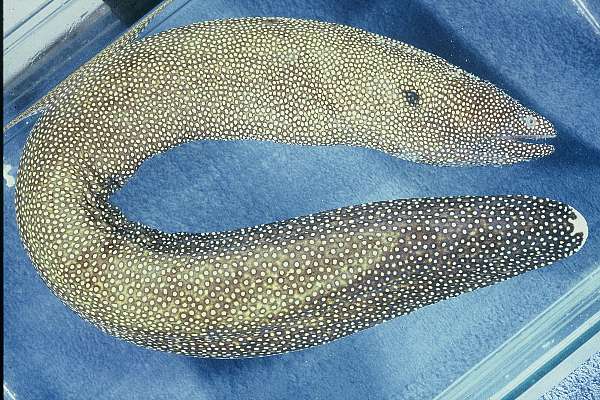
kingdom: Animalia
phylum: Chordata
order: Anguilliformes
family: Muraenidae
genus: Gymnothorax
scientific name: Gymnothorax meleagris
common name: Guineafowl moray
